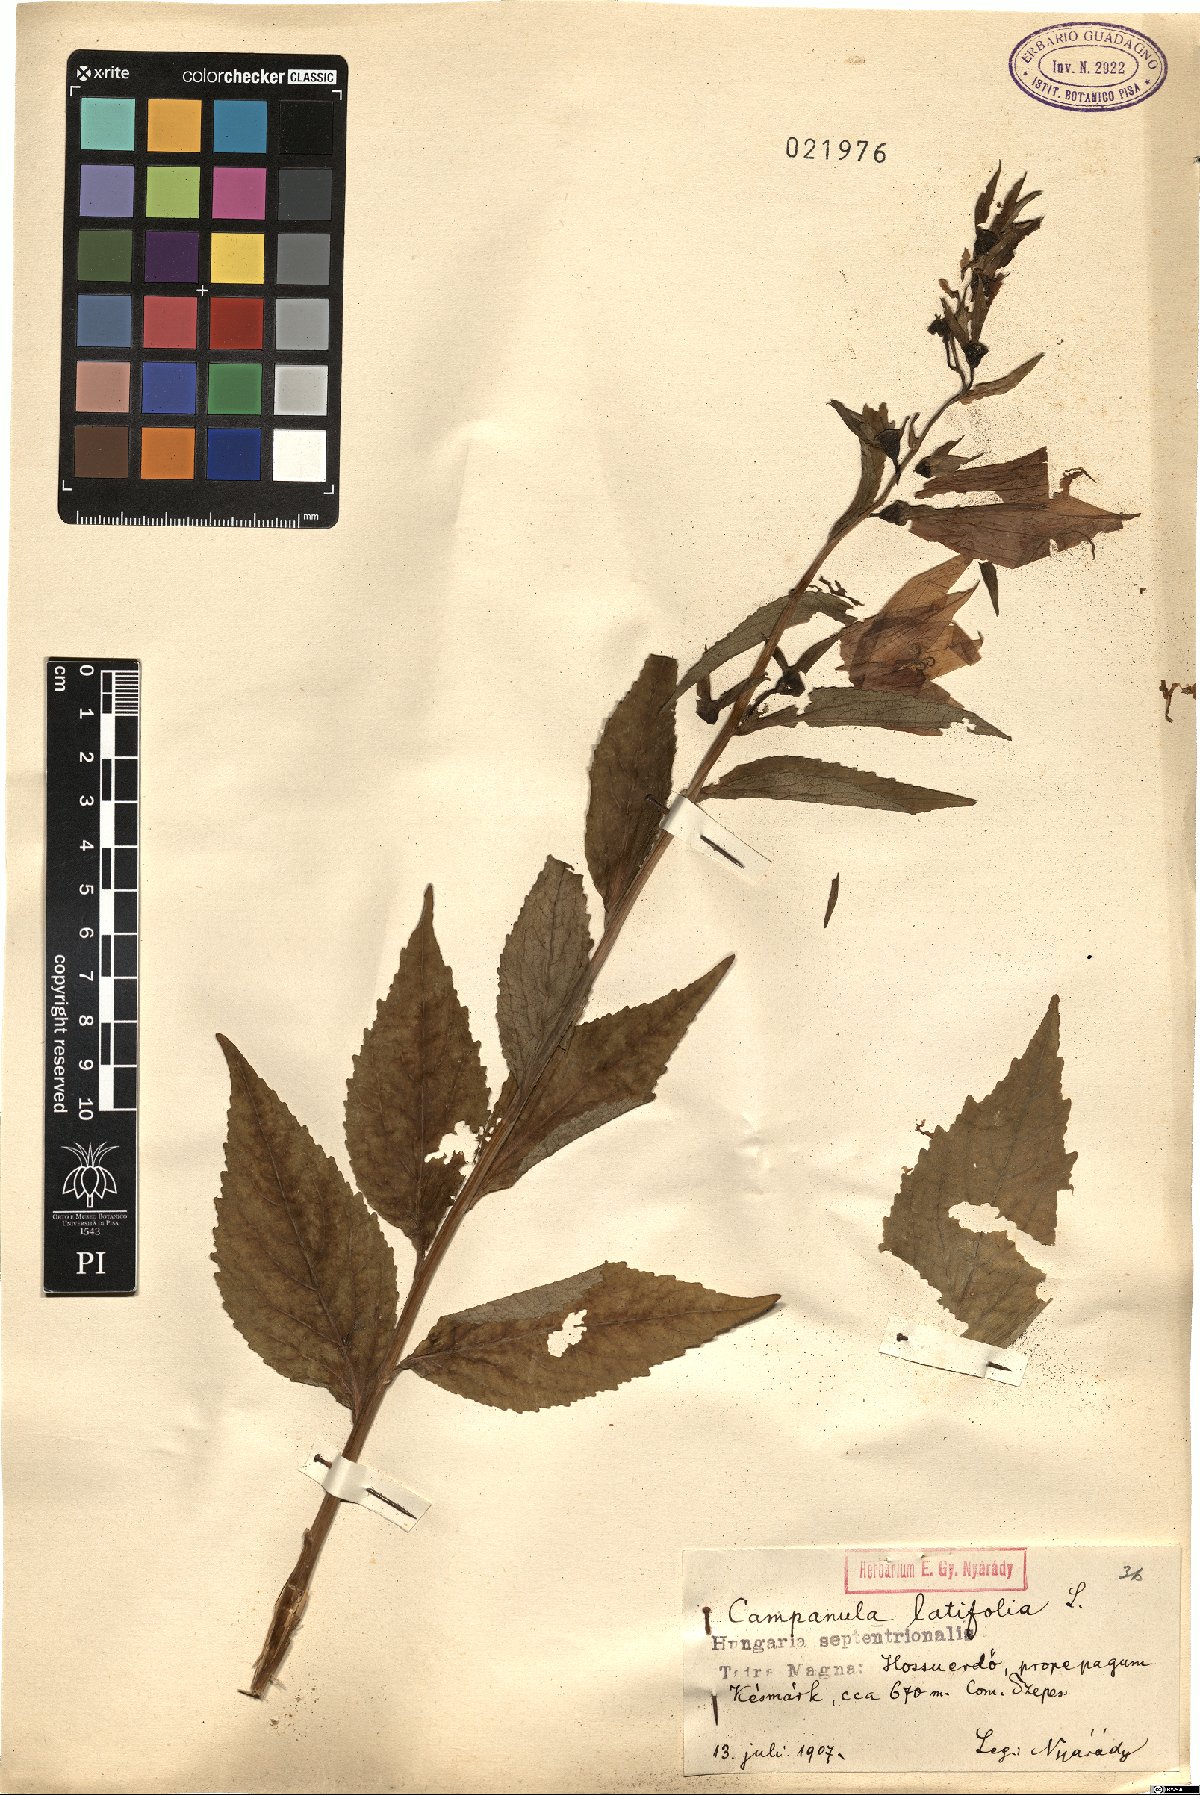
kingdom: Plantae
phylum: Tracheophyta
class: Magnoliopsida
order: Asterales
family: Campanulaceae
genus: Campanula
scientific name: Campanula latifolia
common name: Giant bellflower
